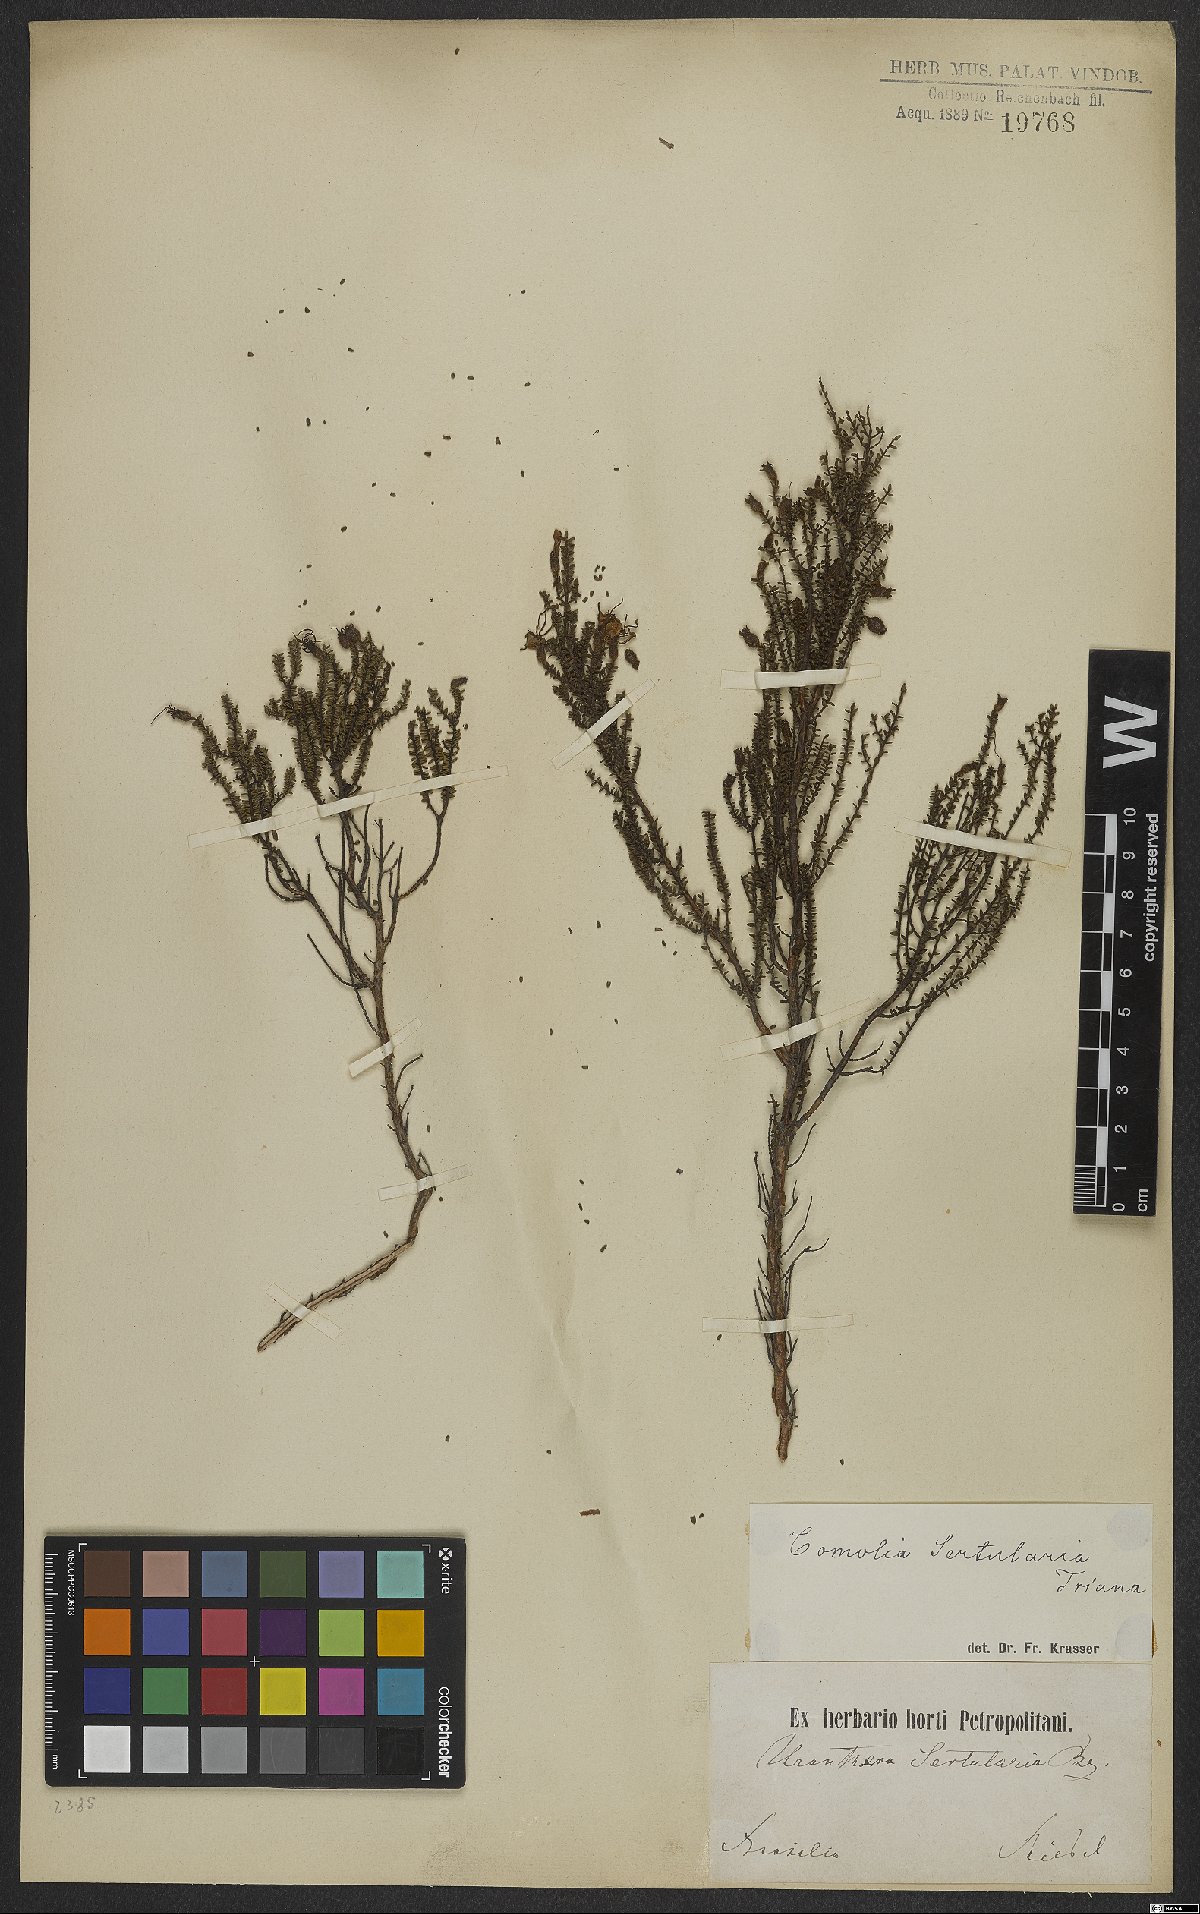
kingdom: Plantae
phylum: Tracheophyta
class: Magnoliopsida
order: Myrtales
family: Melastomataceae
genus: Fritzschia
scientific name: Fritzschia sertularia
